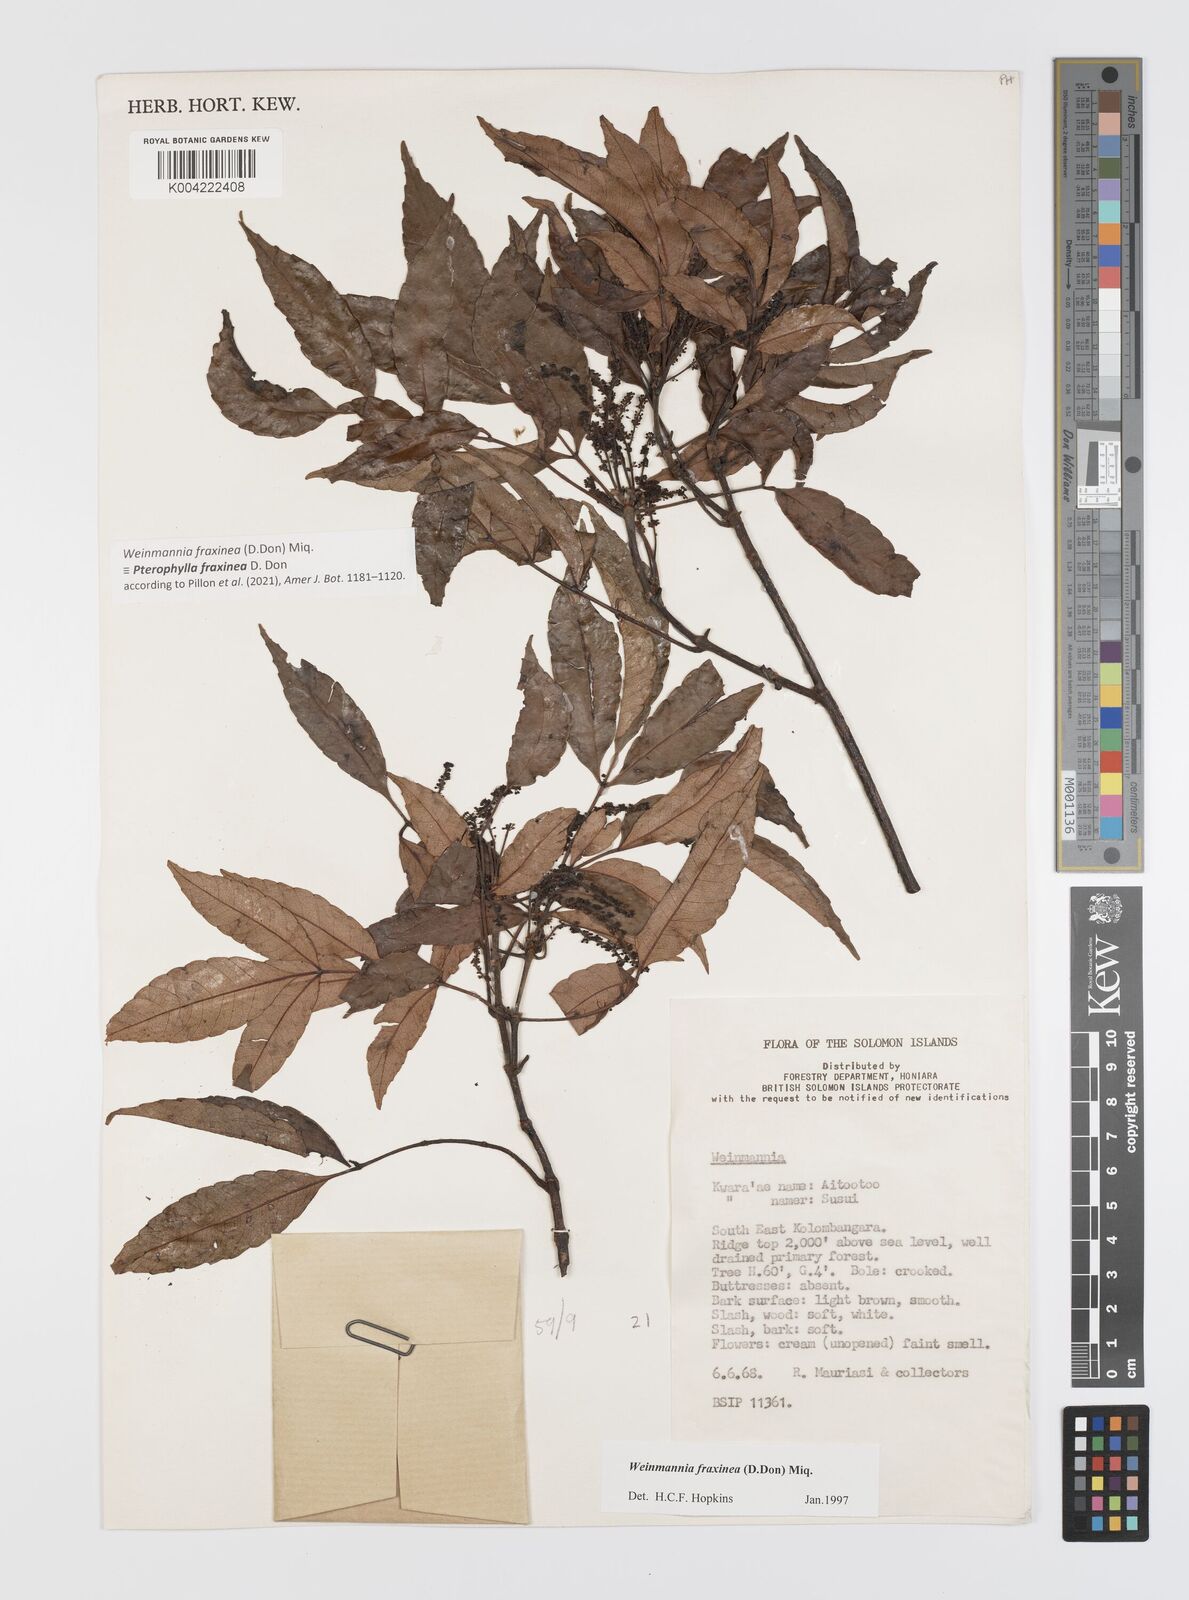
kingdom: Plantae
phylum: Tracheophyta
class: Magnoliopsida
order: Oxalidales
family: Cunoniaceae
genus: Pterophylla
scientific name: Pterophylla fraxinea
